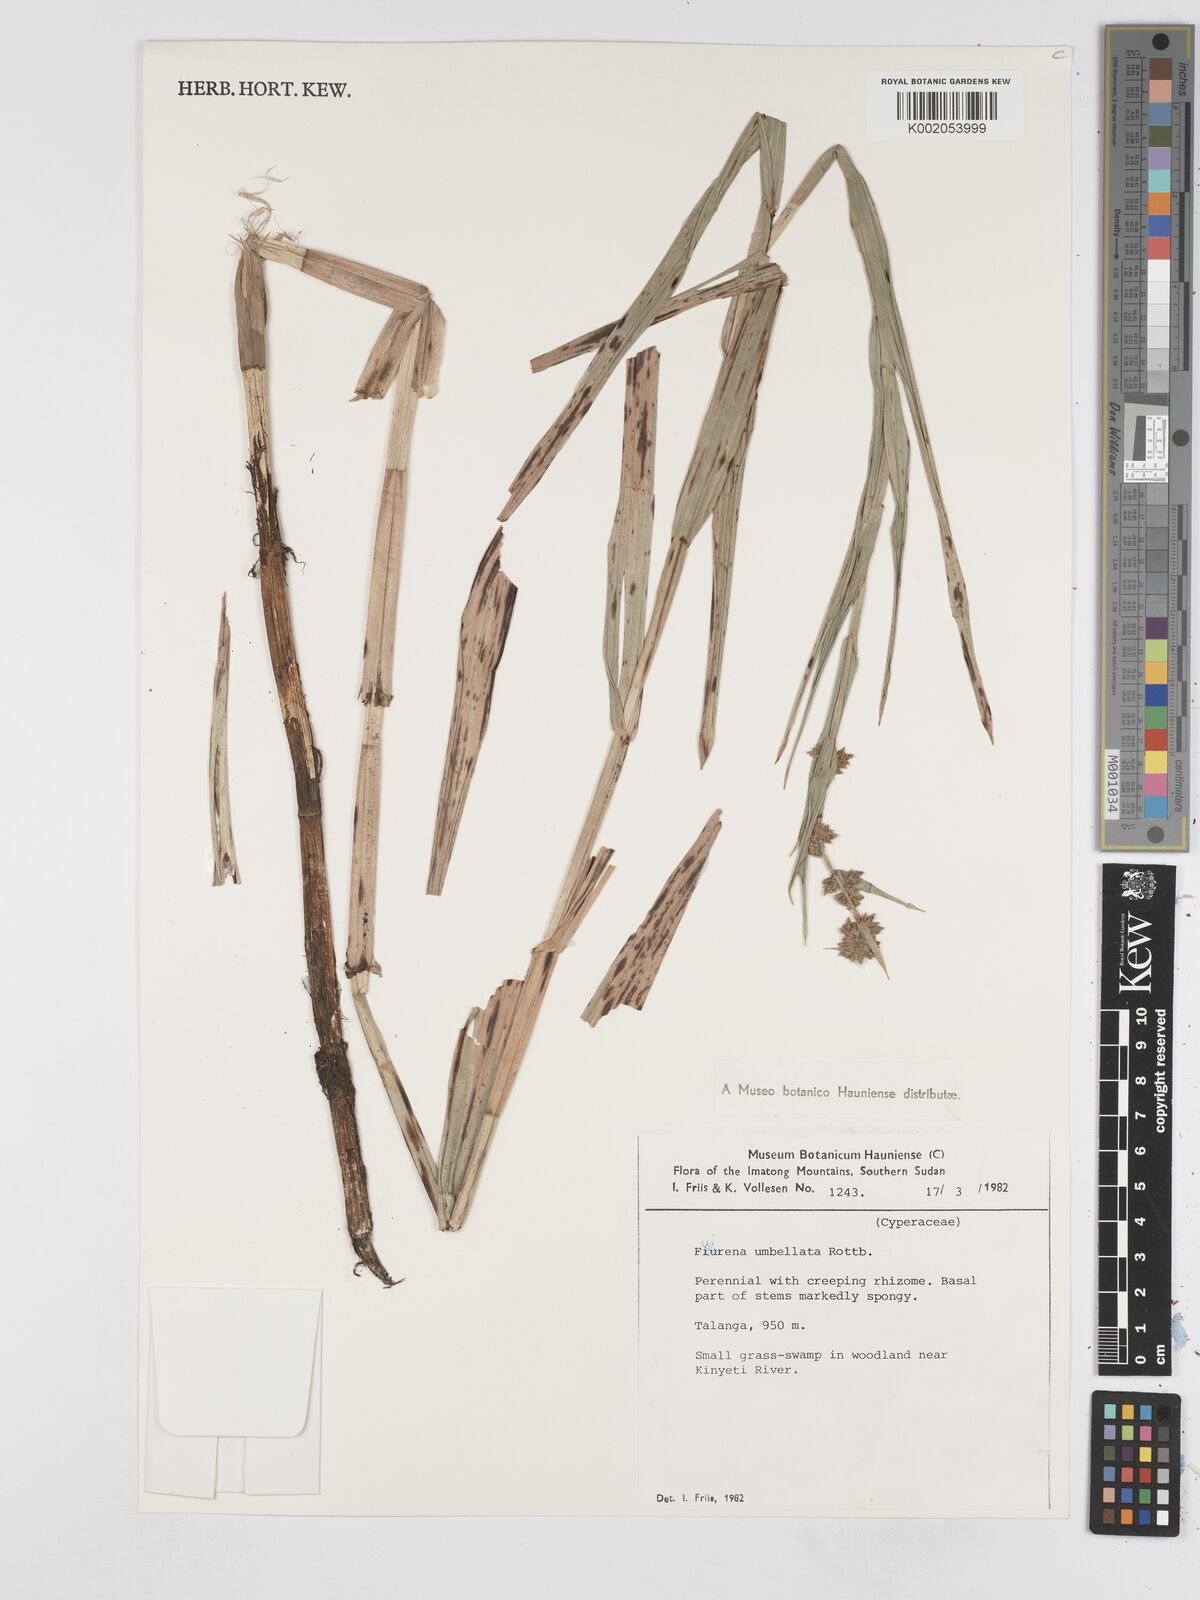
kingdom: Plantae
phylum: Tracheophyta
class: Liliopsida
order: Poales
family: Cyperaceae
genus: Fuirena
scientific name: Fuirena umbellata
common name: Yefen
